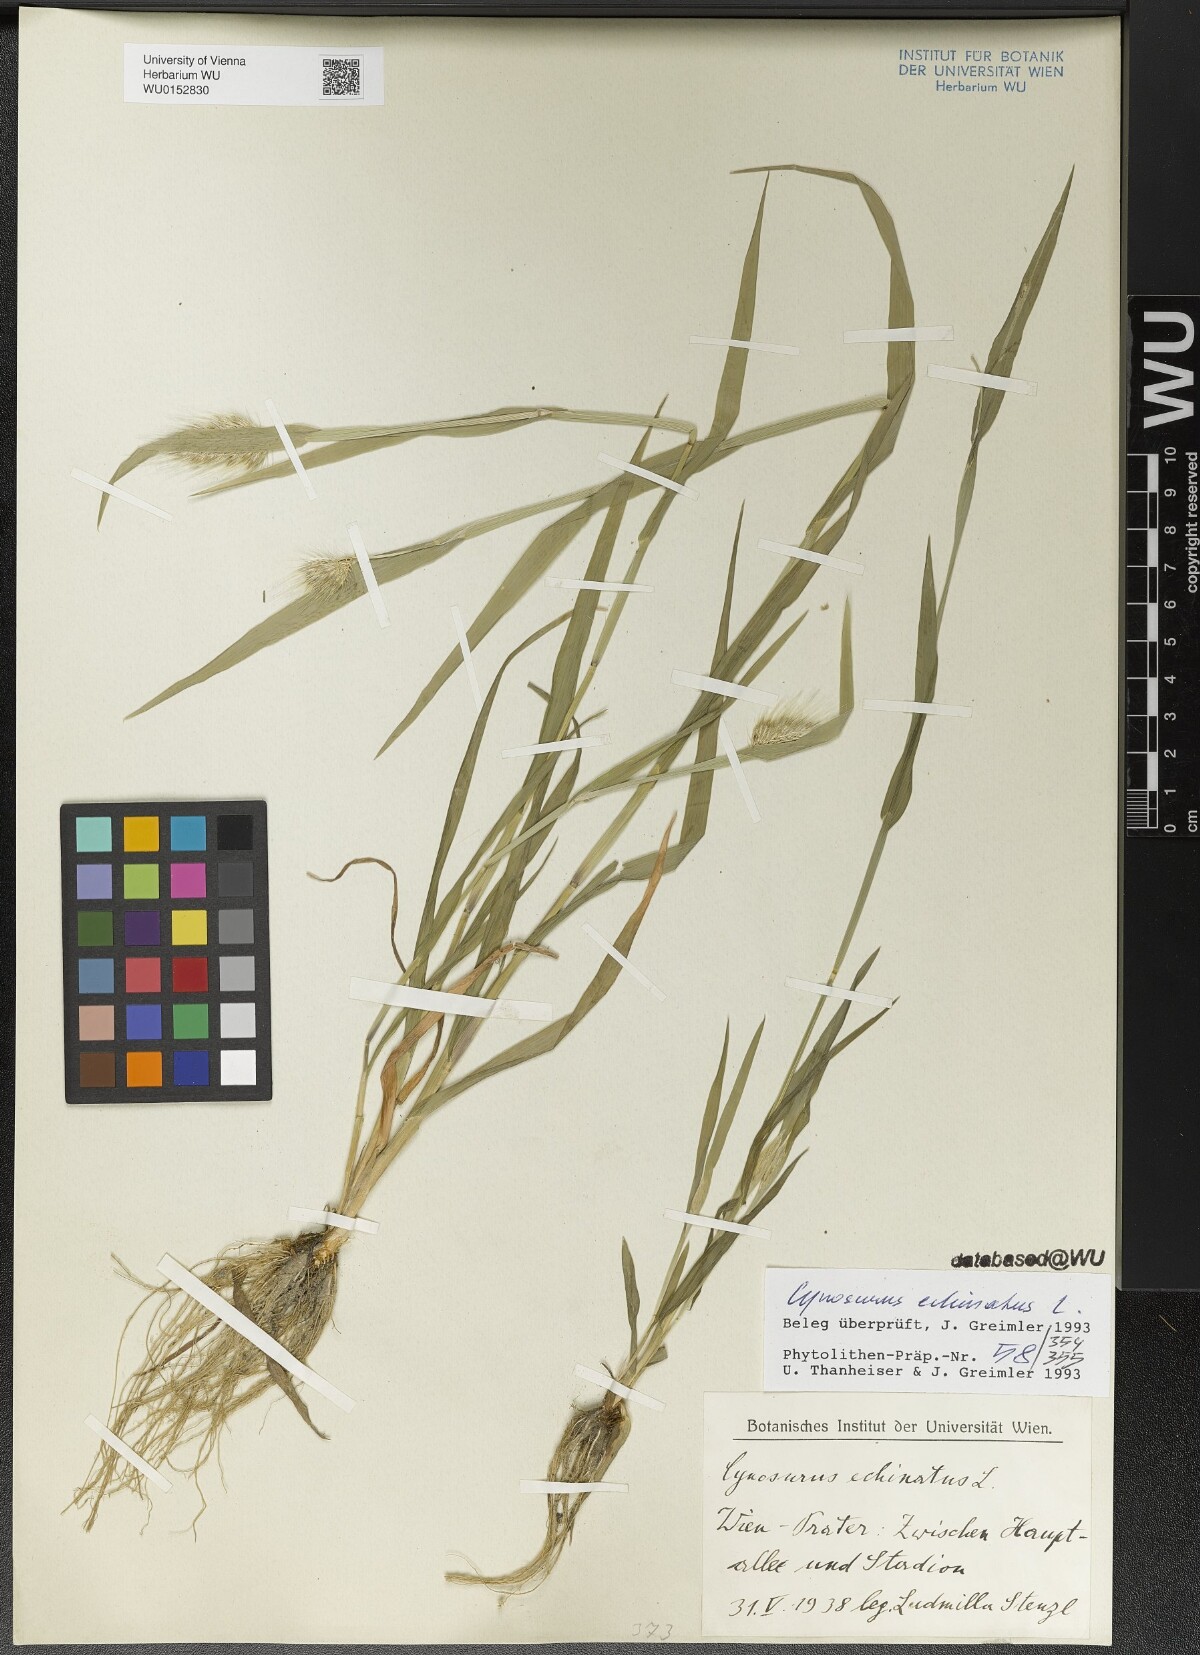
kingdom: Plantae
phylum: Tracheophyta
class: Liliopsida
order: Poales
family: Poaceae
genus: Cynosurus
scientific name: Cynosurus echinatus
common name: Rough dog's-tail
